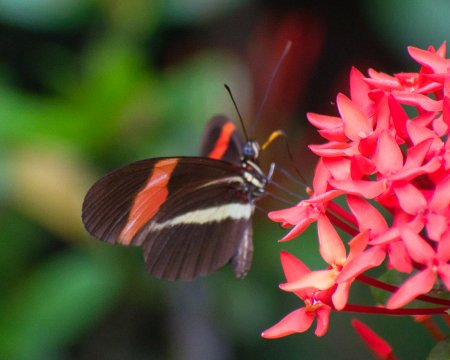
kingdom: Animalia
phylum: Arthropoda
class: Insecta
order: Lepidoptera
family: Nymphalidae
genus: Heliconius
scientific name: Heliconius erato
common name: Erato Heliconian
